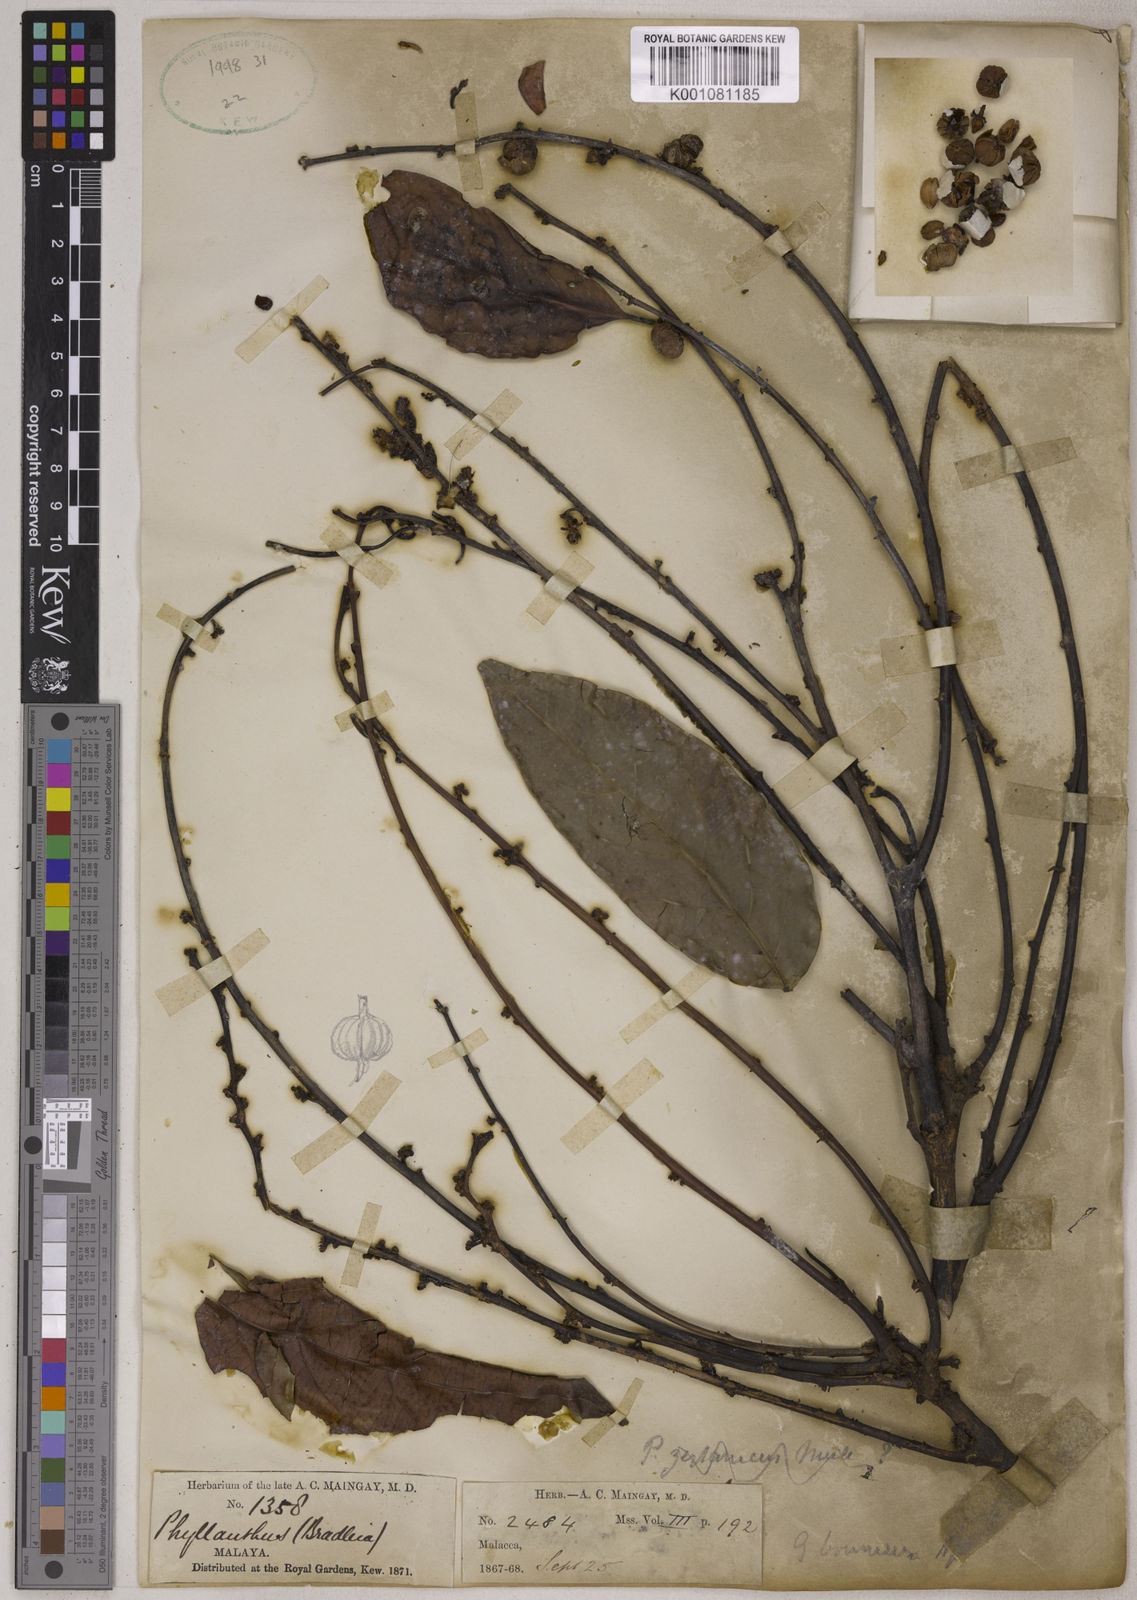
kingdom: Plantae
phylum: Tracheophyta
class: Magnoliopsida
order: Malpighiales
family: Phyllanthaceae
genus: Glochidion
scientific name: Glochidion zeylanicum
